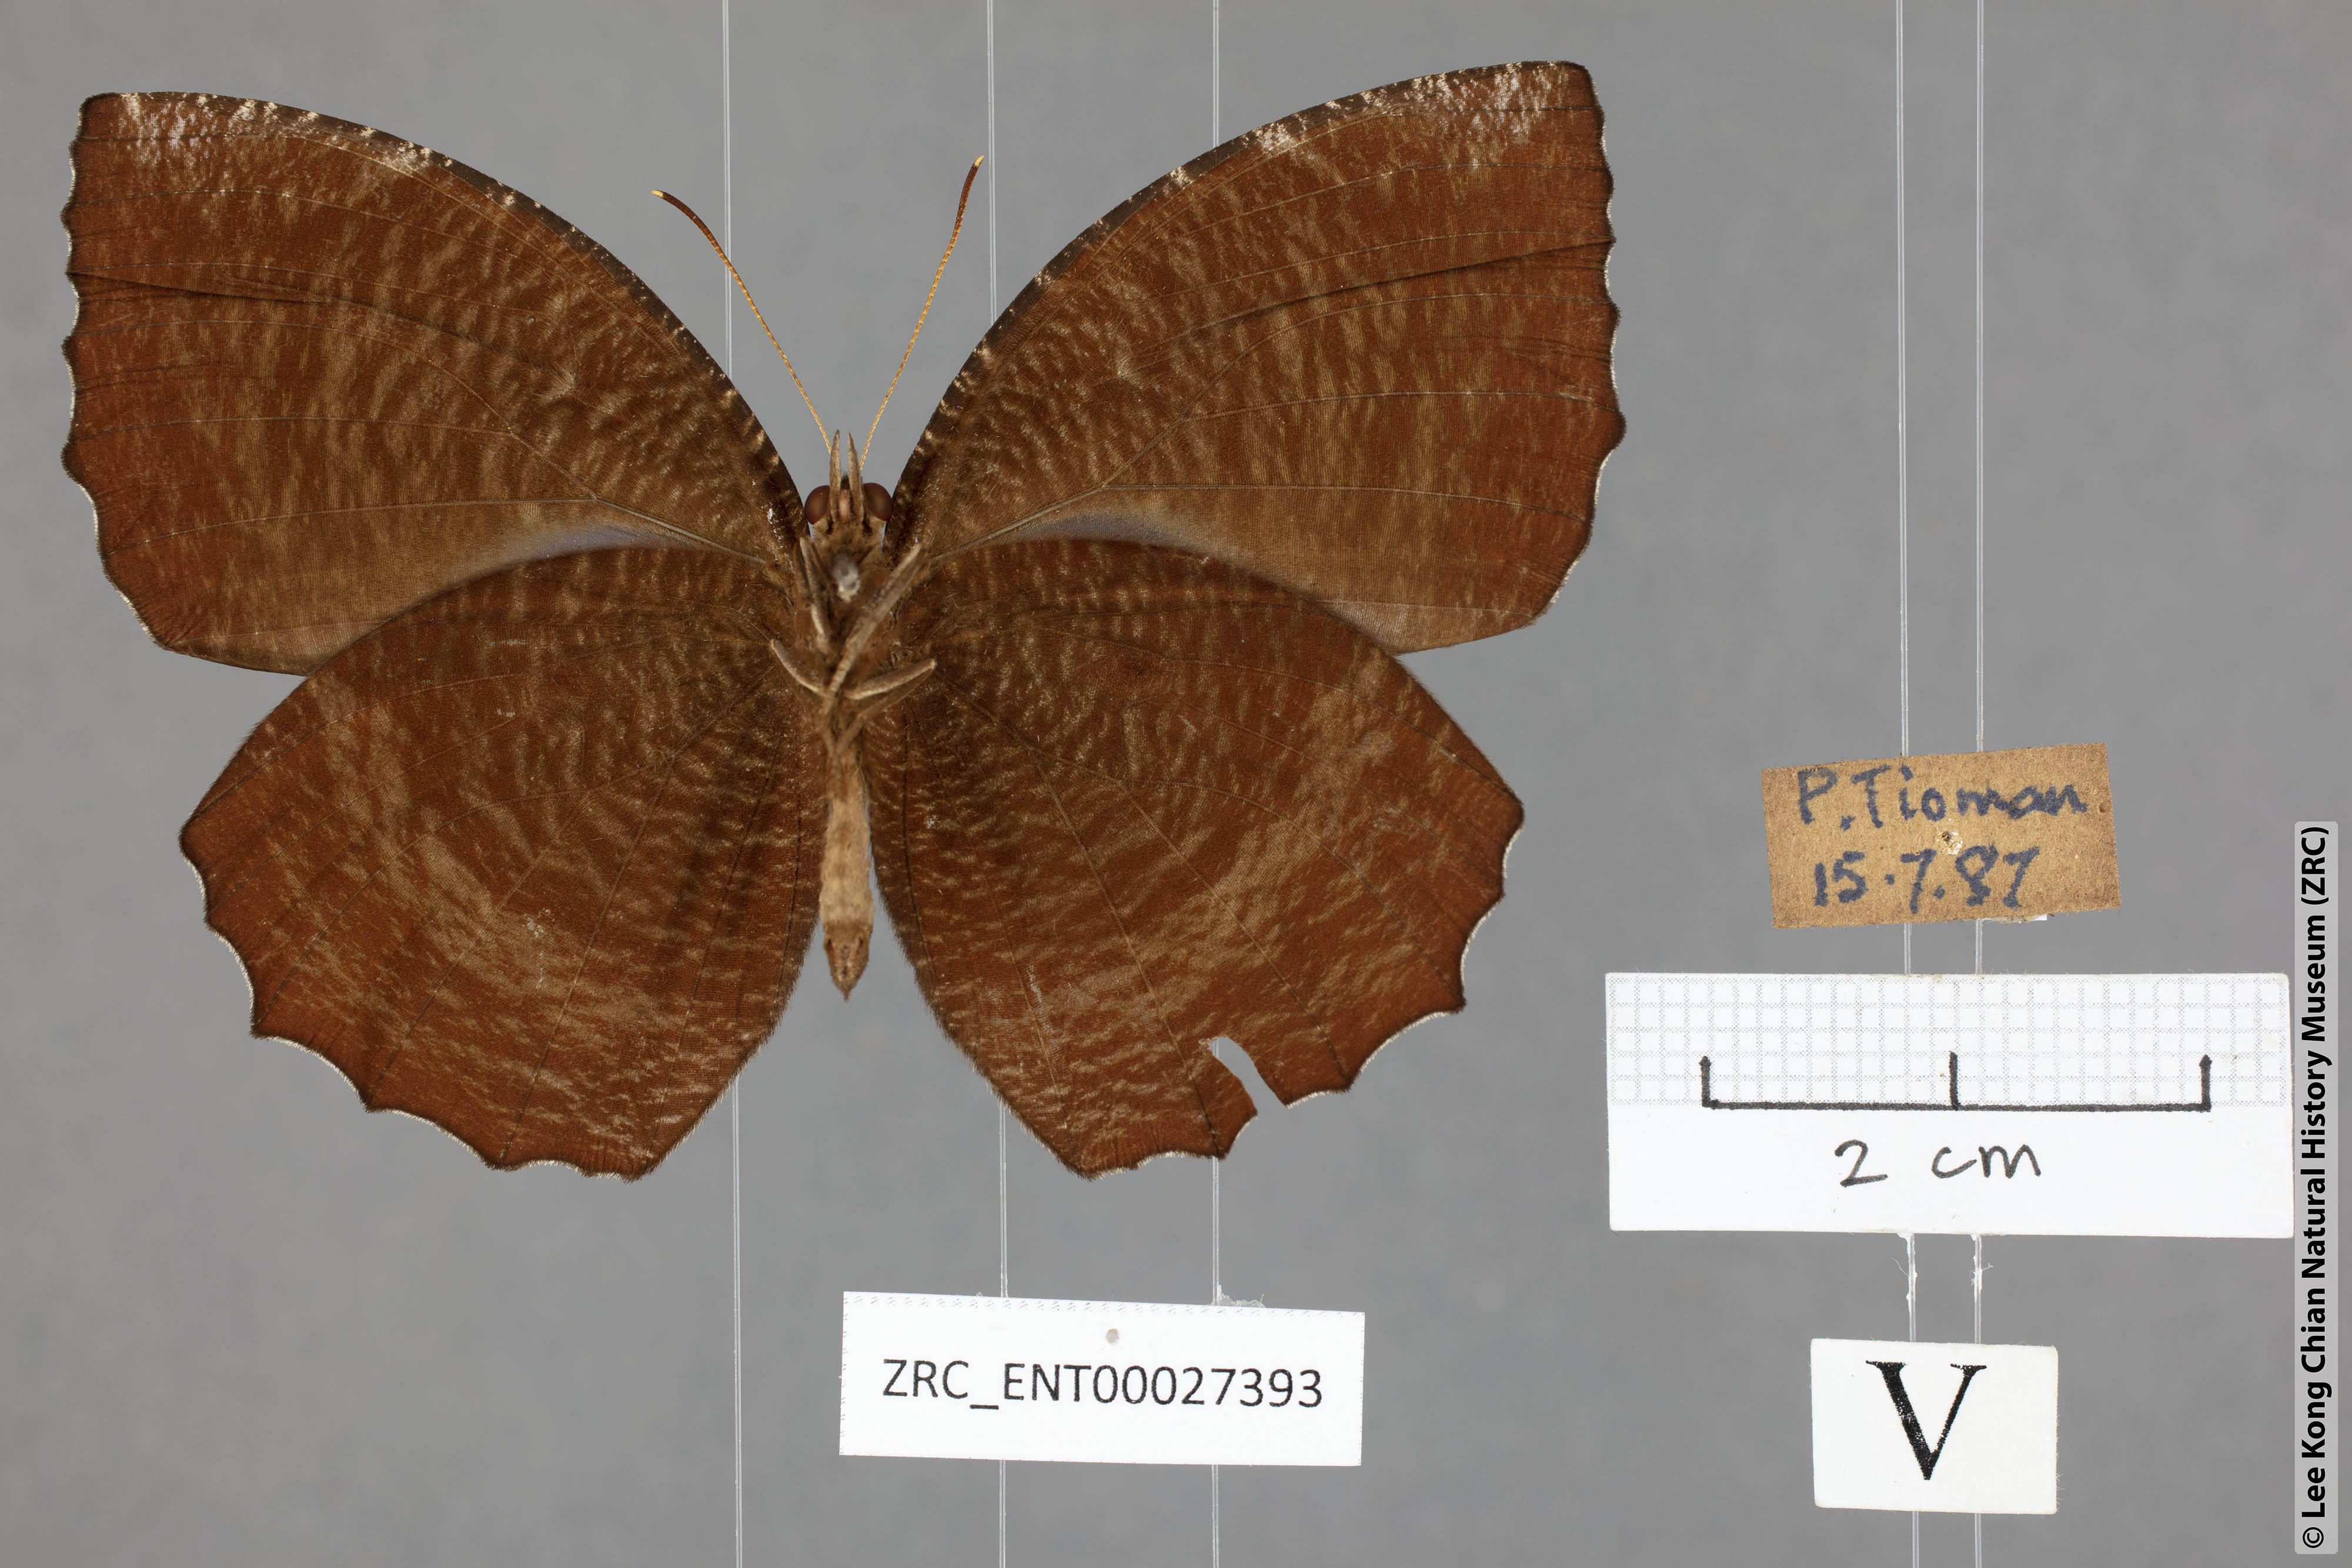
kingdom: Animalia
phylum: Arthropoda
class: Insecta
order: Lepidoptera
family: Nymphalidae
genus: Elymnias
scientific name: Elymnias hypermnestra
